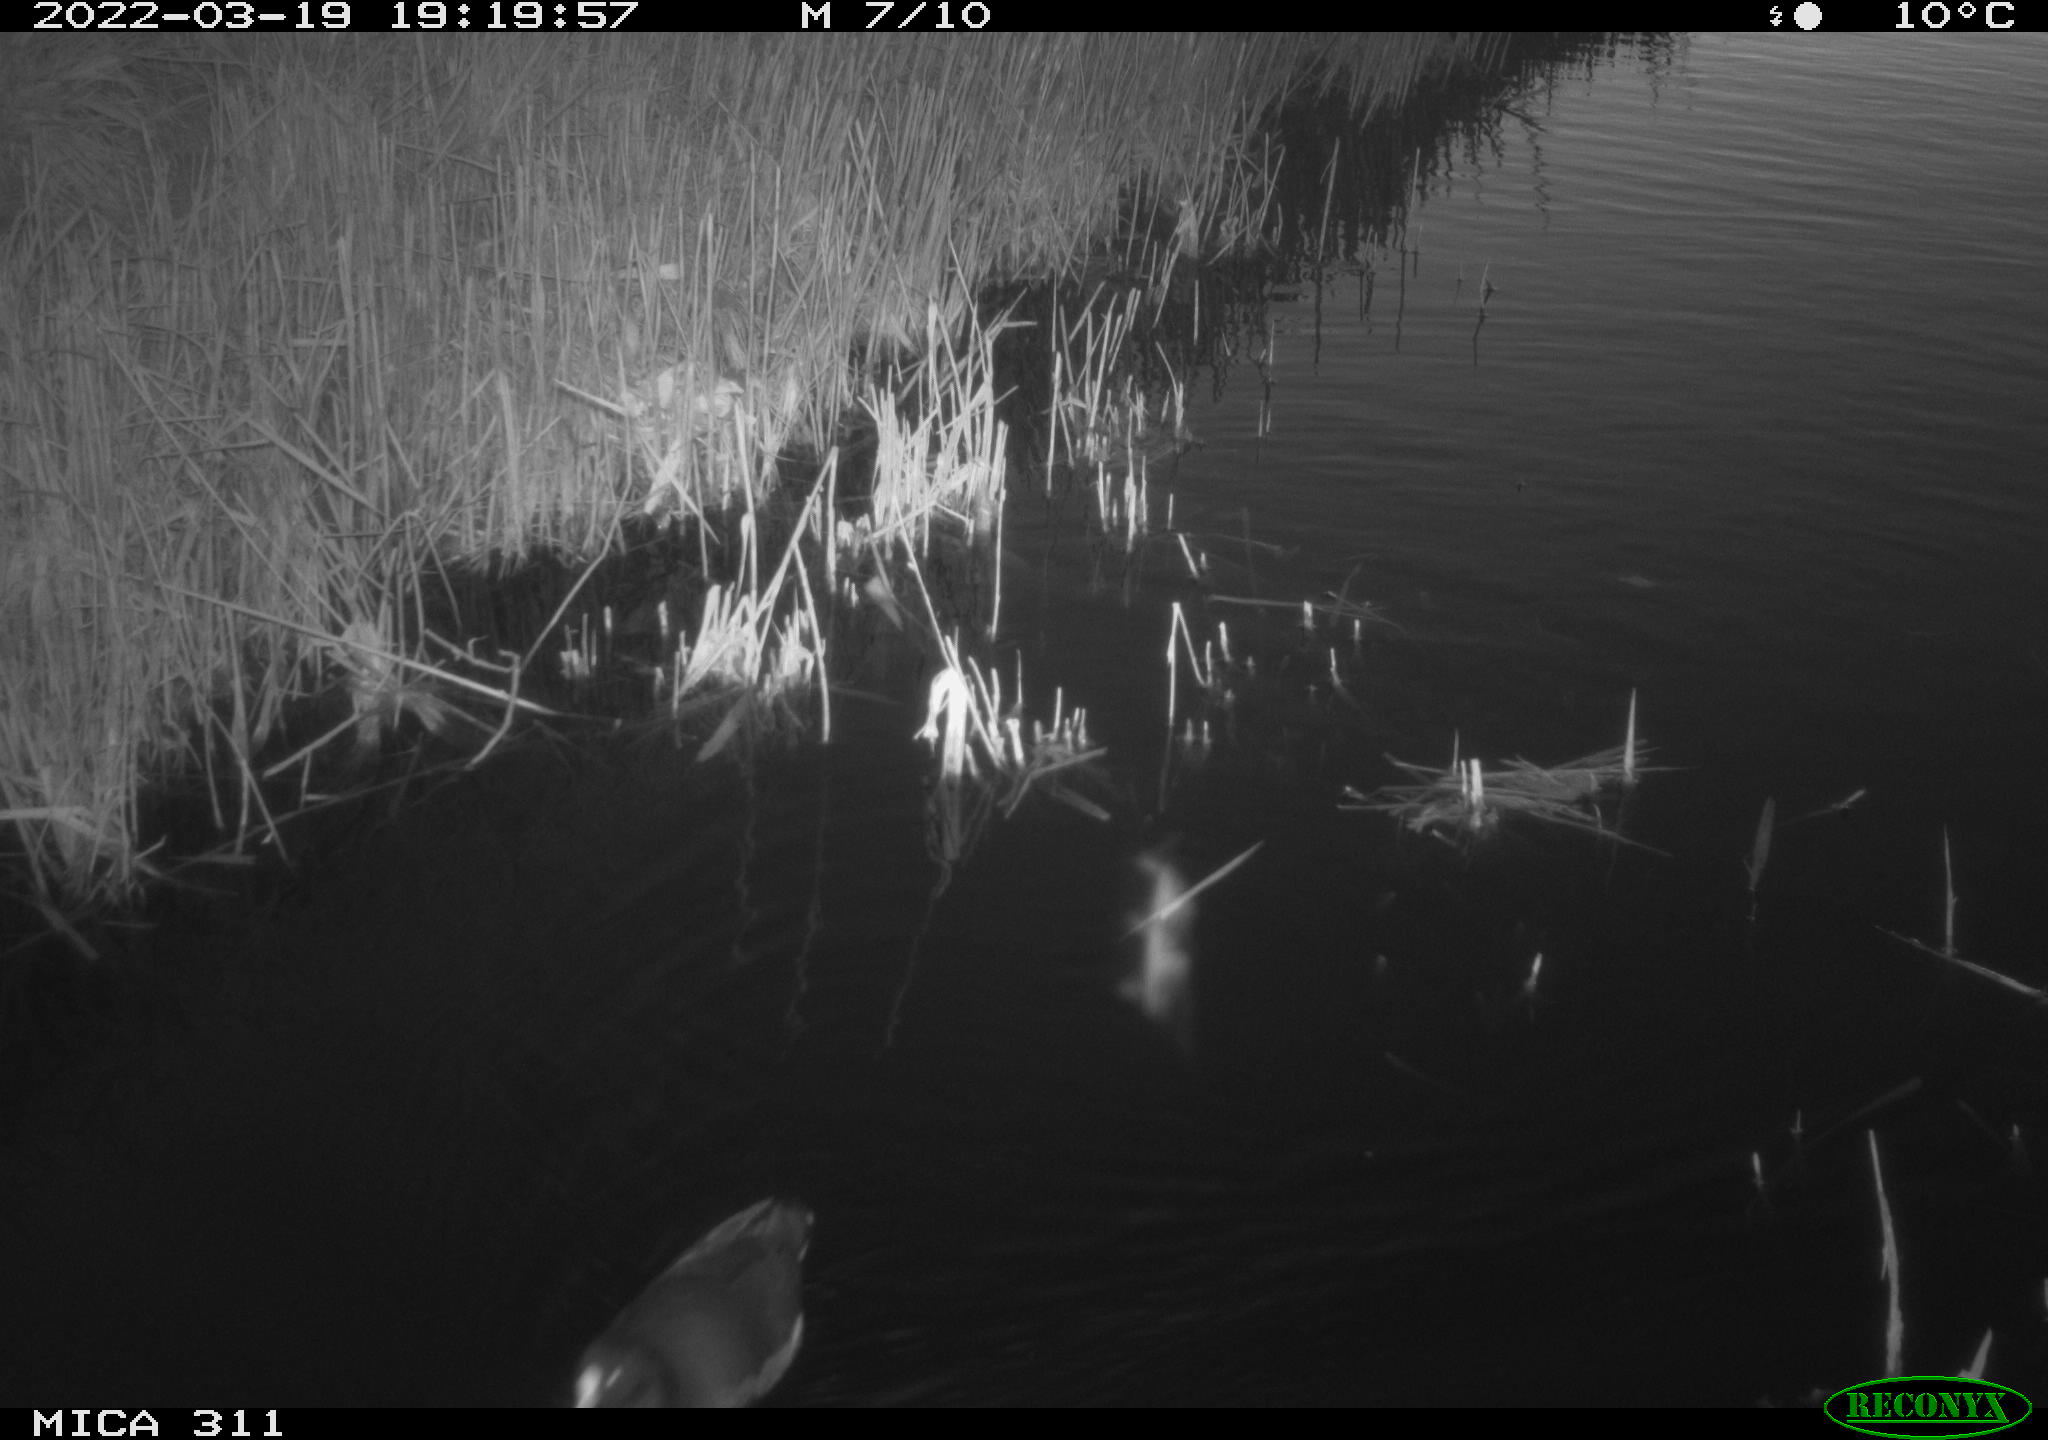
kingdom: Animalia
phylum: Chordata
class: Aves
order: Gruiformes
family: Rallidae
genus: Gallinula
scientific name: Gallinula chloropus
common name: Common moorhen
